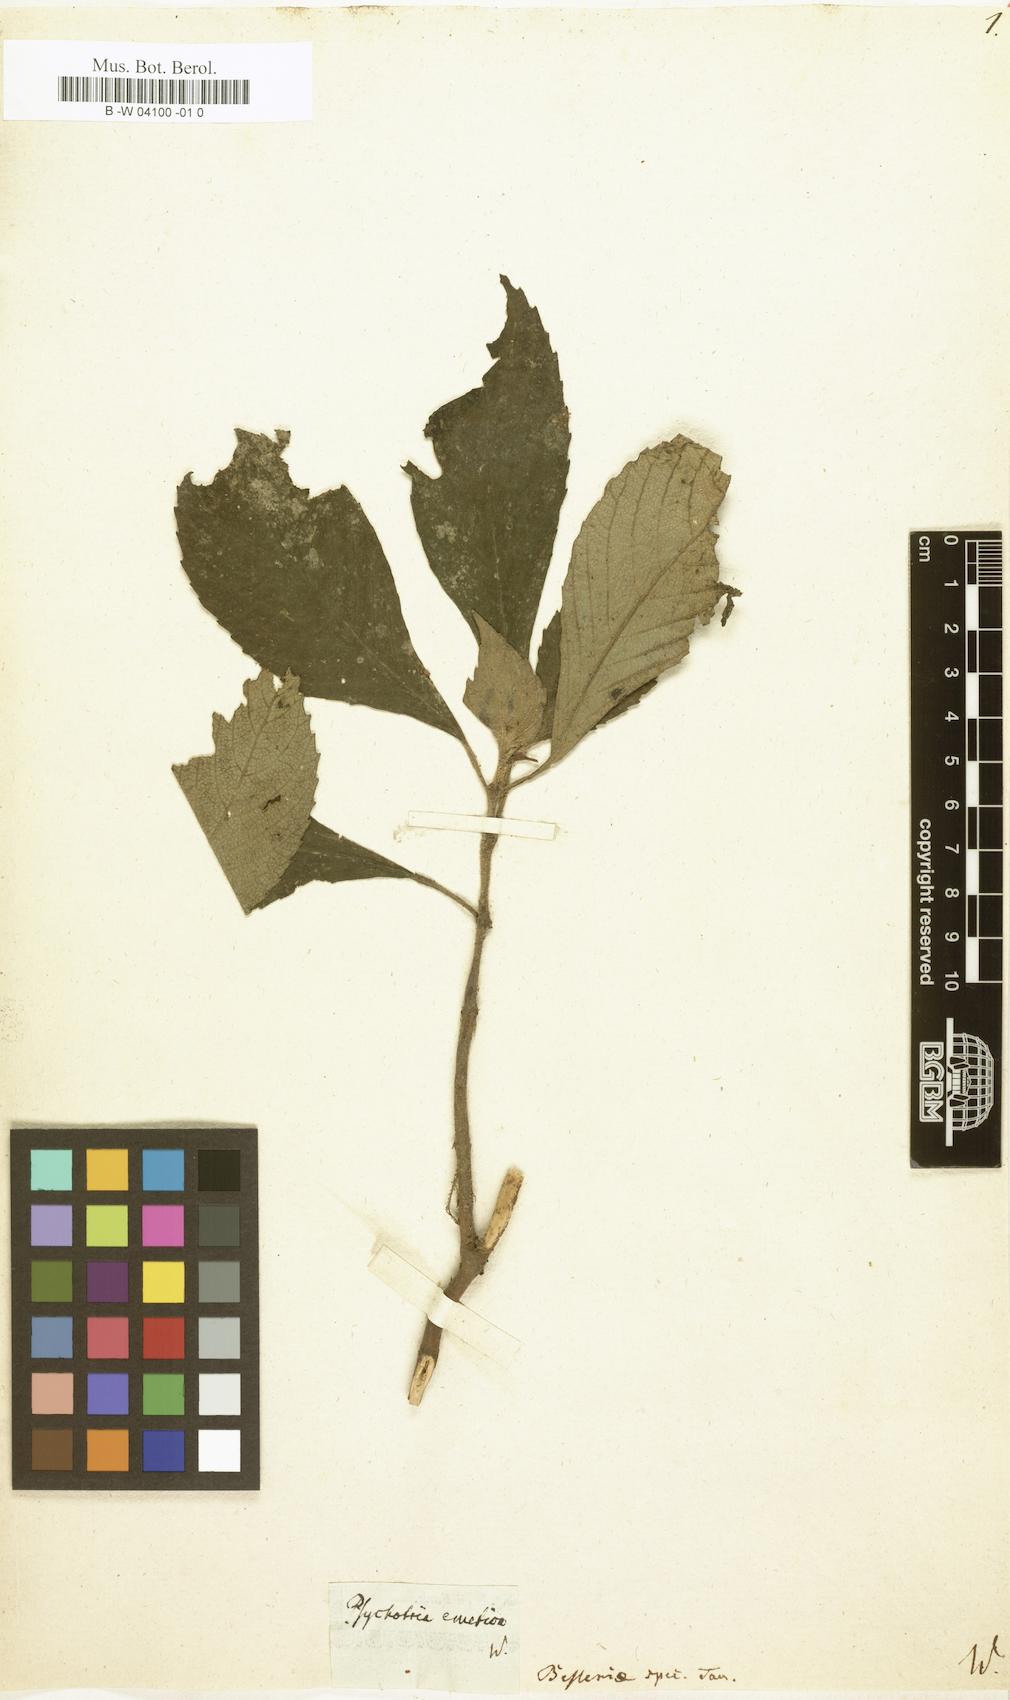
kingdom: Plantae
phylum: Tracheophyta
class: Magnoliopsida
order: Gentianales
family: Rubiaceae
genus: Psychotria
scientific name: Psychotria emetica
